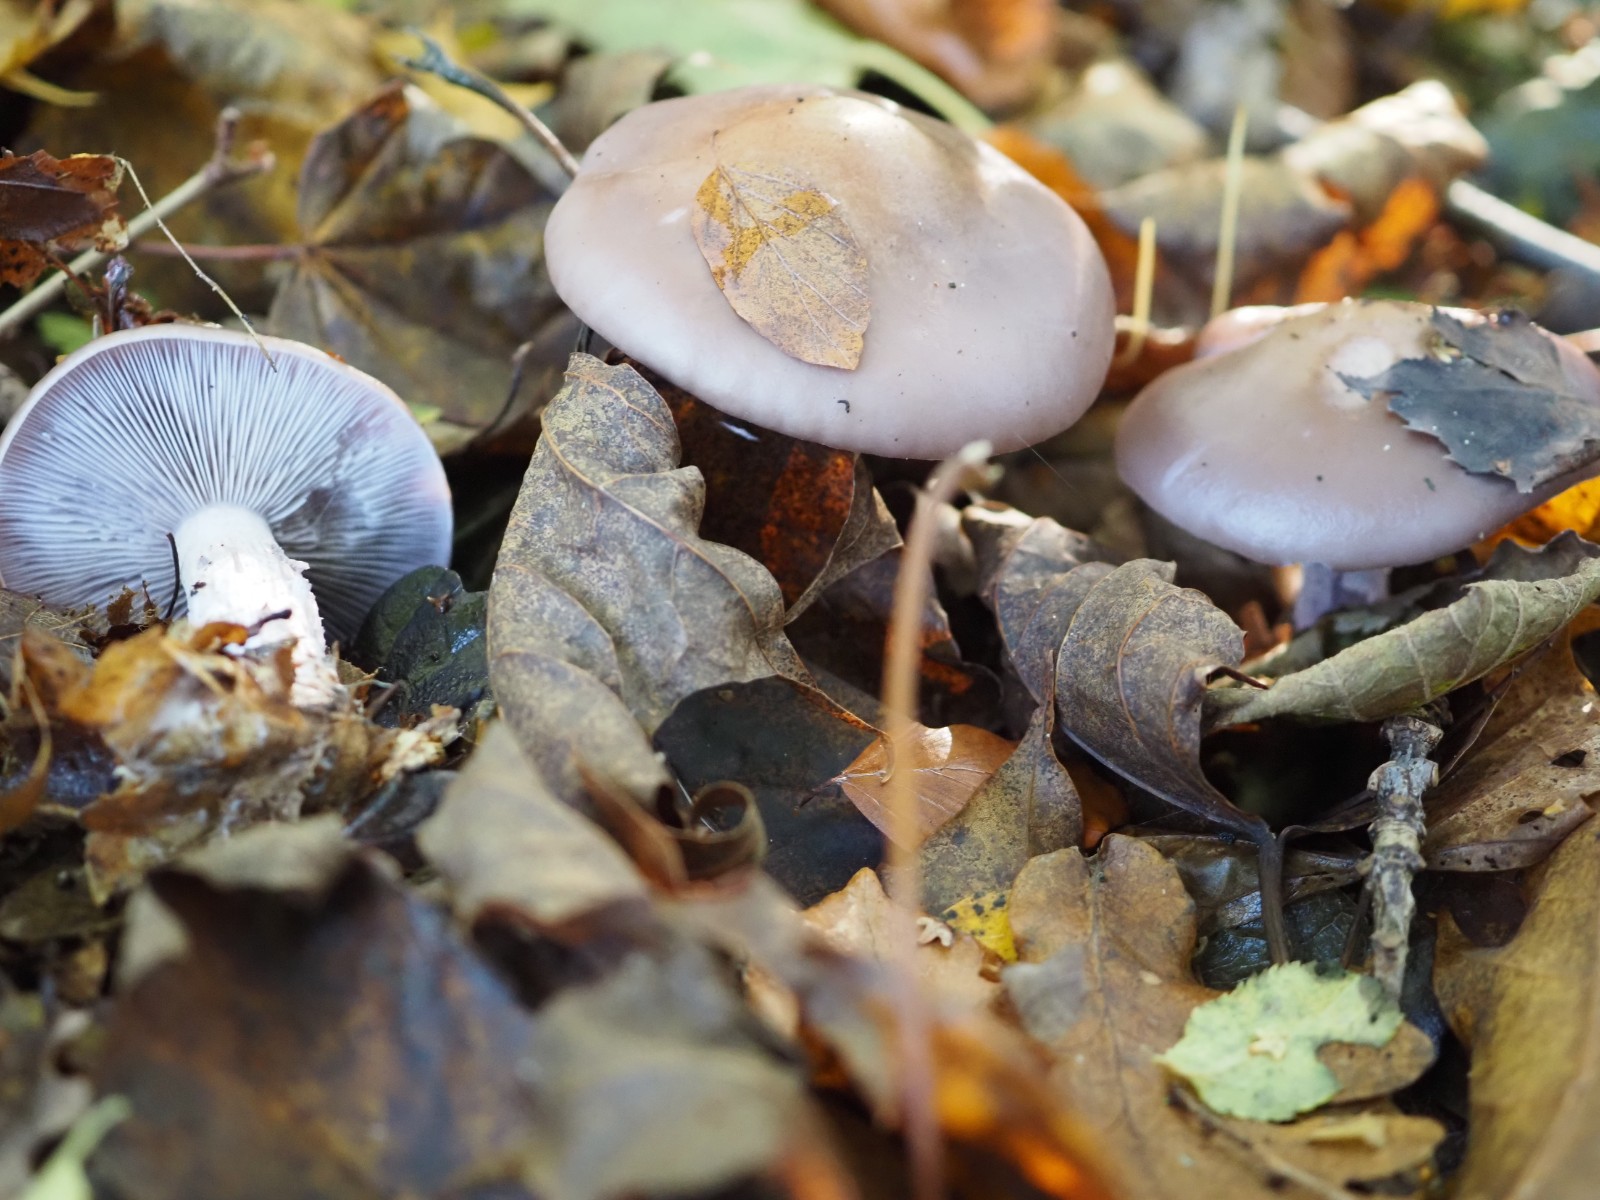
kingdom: Fungi
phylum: Basidiomycota
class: Agaricomycetes
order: Agaricales
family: Tricholomataceae
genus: Lepista
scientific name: Lepista nuda
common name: violet hekseringshat
